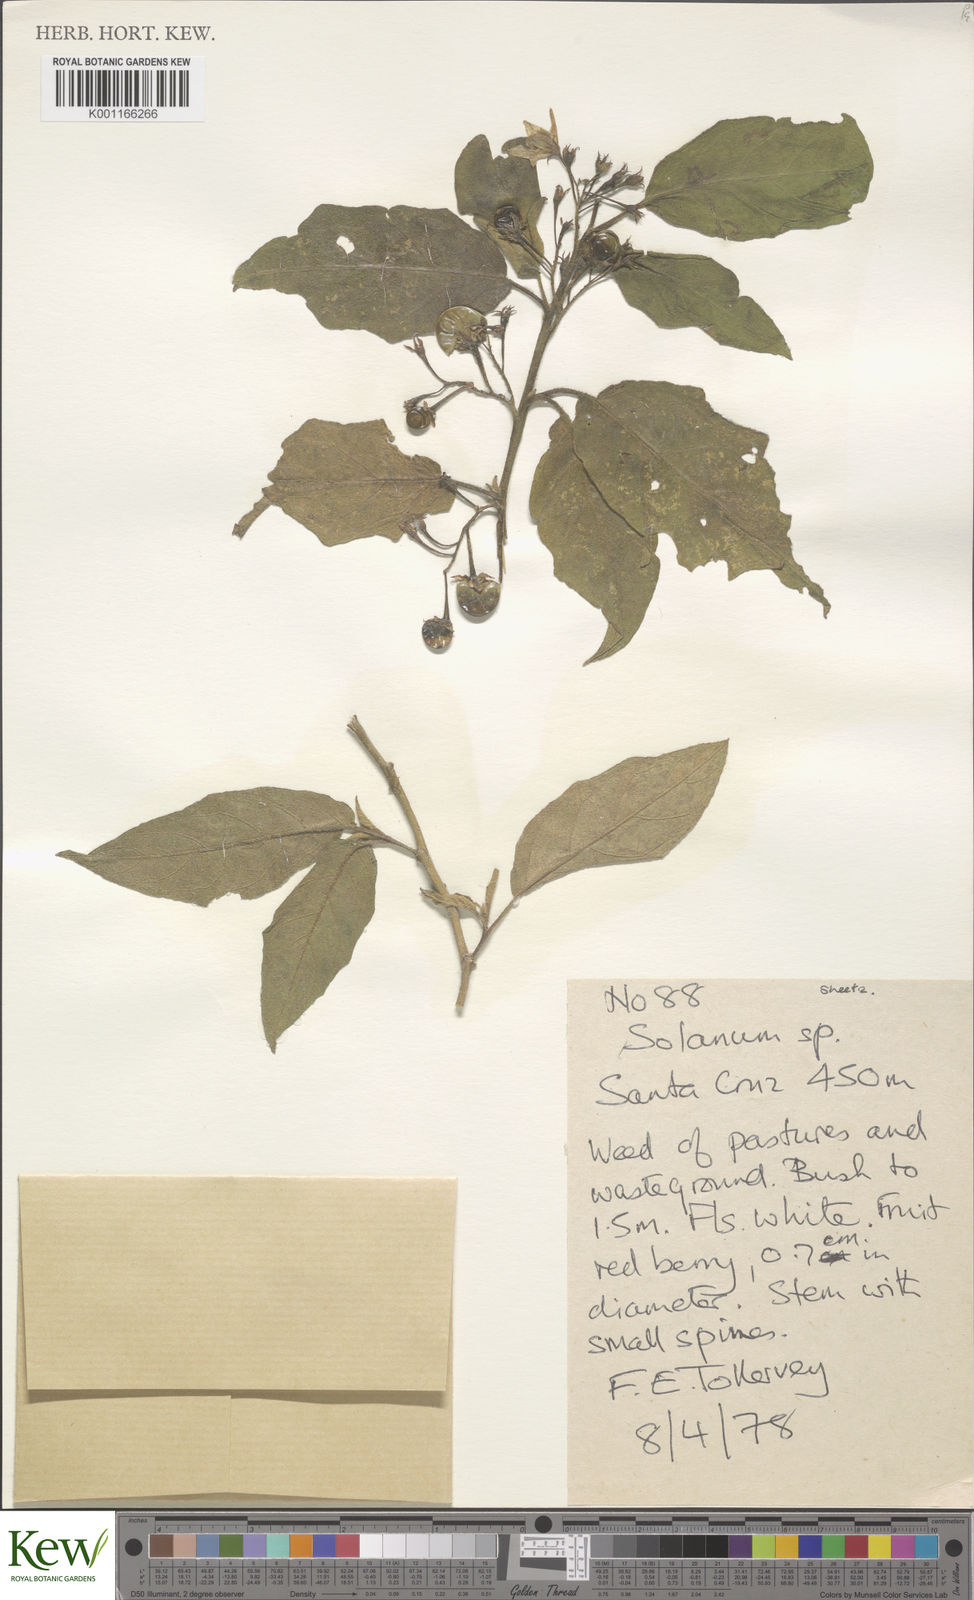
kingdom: Plantae
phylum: Tracheophyta
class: Magnoliopsida
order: Solanales
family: Solanaceae
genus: Solanum
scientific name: Solanum torvum
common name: Turkey berry
